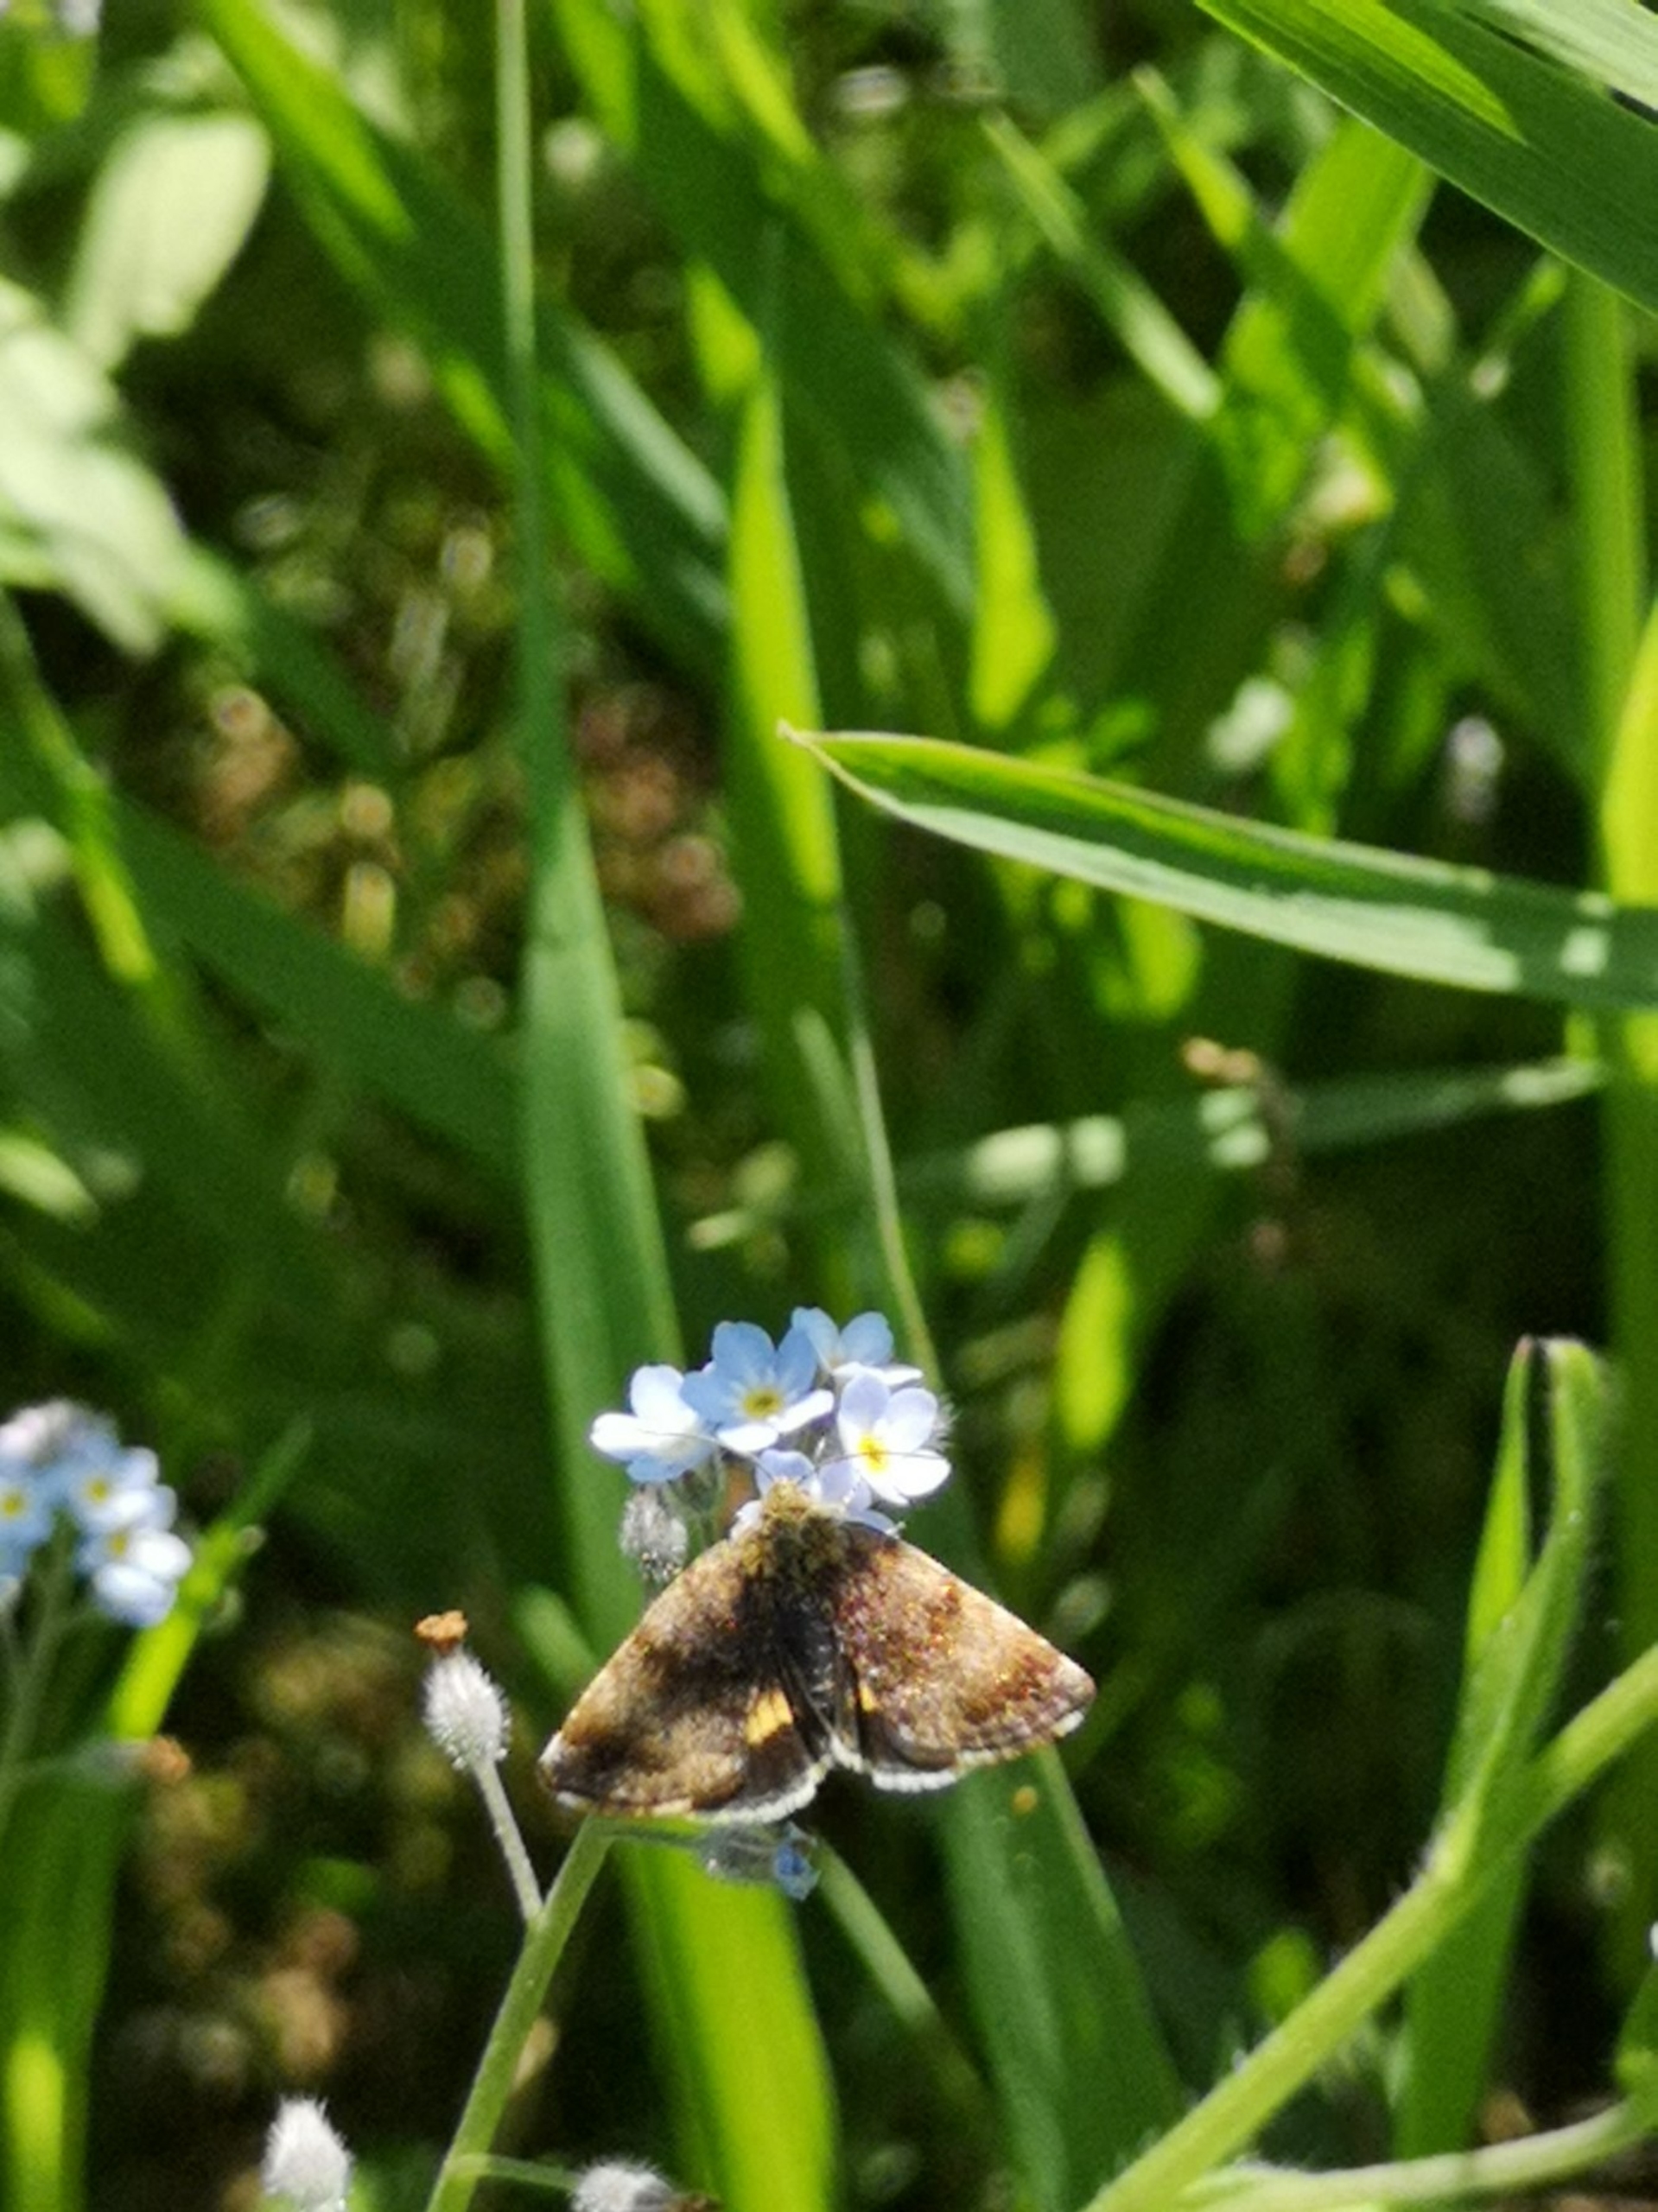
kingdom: Animalia
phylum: Arthropoda
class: Insecta
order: Lepidoptera
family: Noctuidae
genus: Panemeria
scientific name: Panemeria tenebrata
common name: Hønsetarm-glansugle
